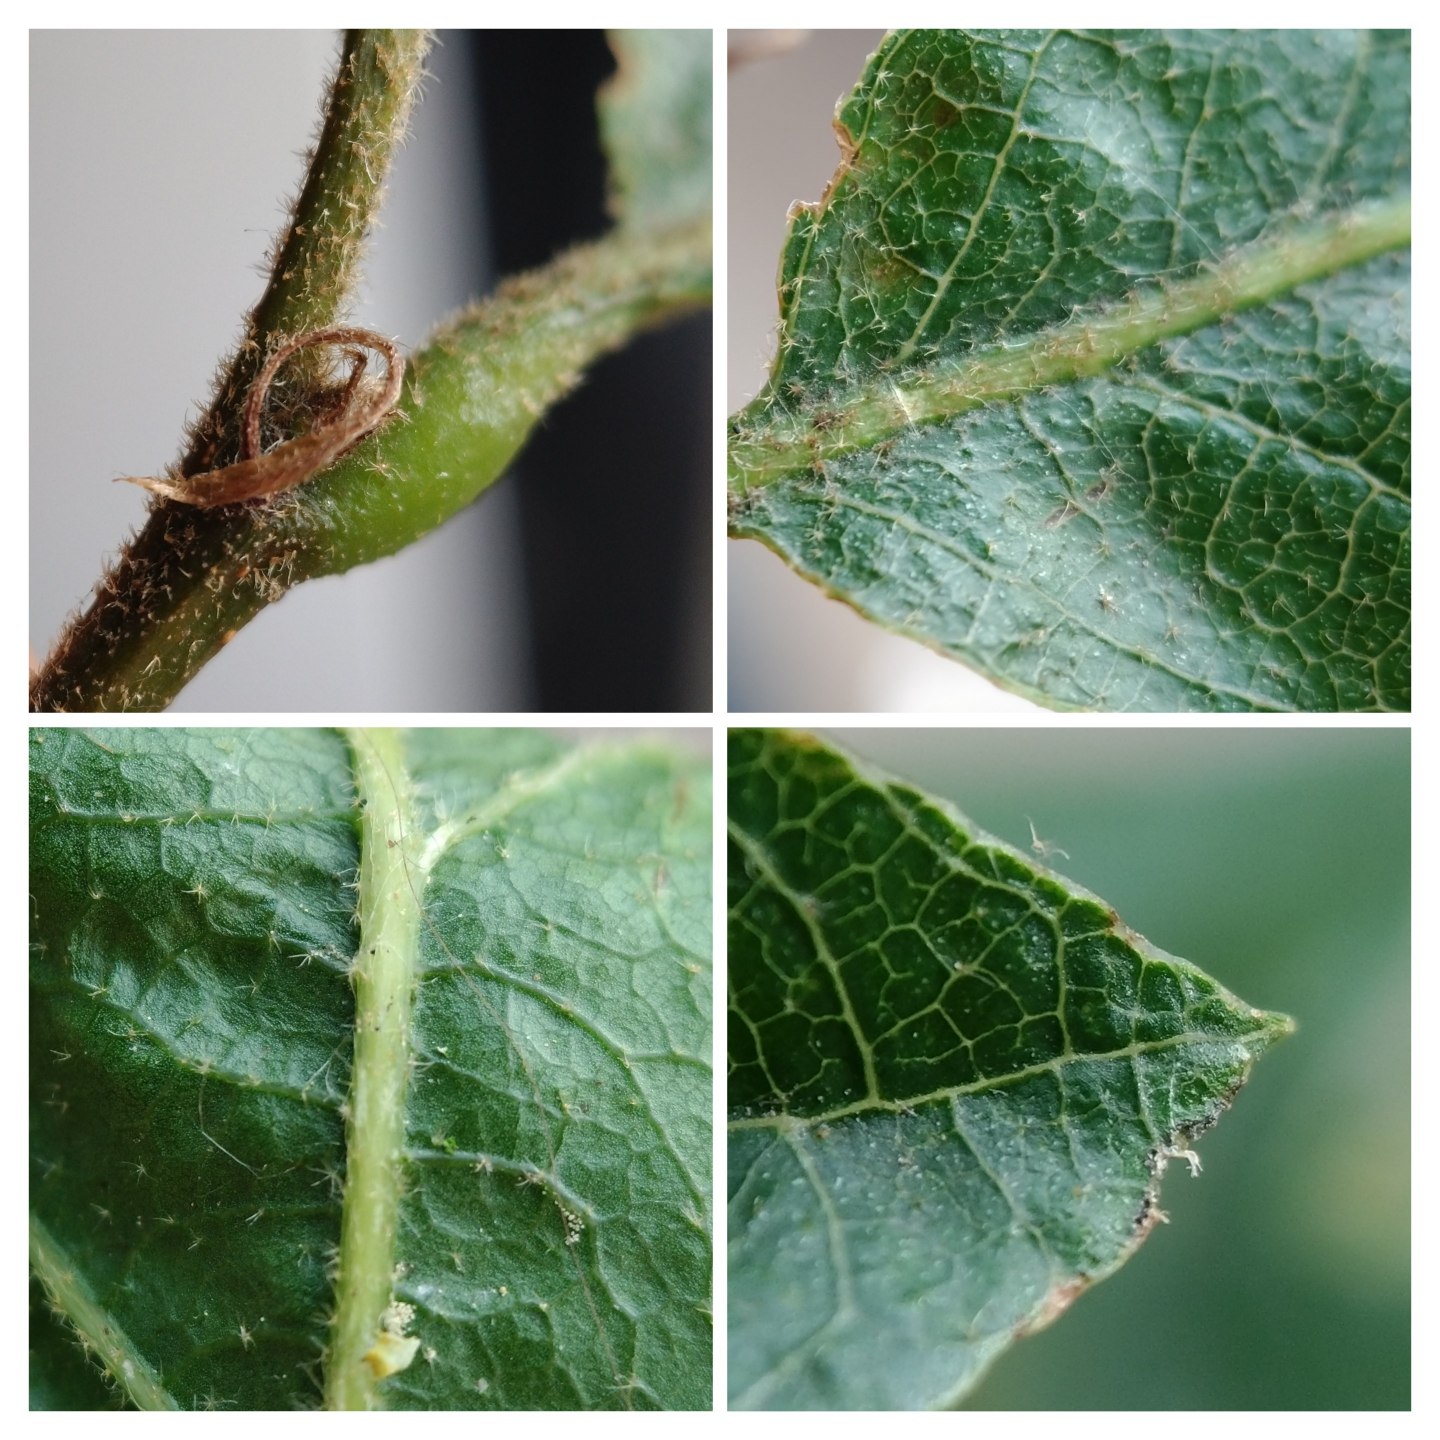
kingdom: Plantae
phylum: Tracheophyta
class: Magnoliopsida
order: Fagales
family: Fagaceae
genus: Quercus
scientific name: Quercus
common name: Egeslægten
